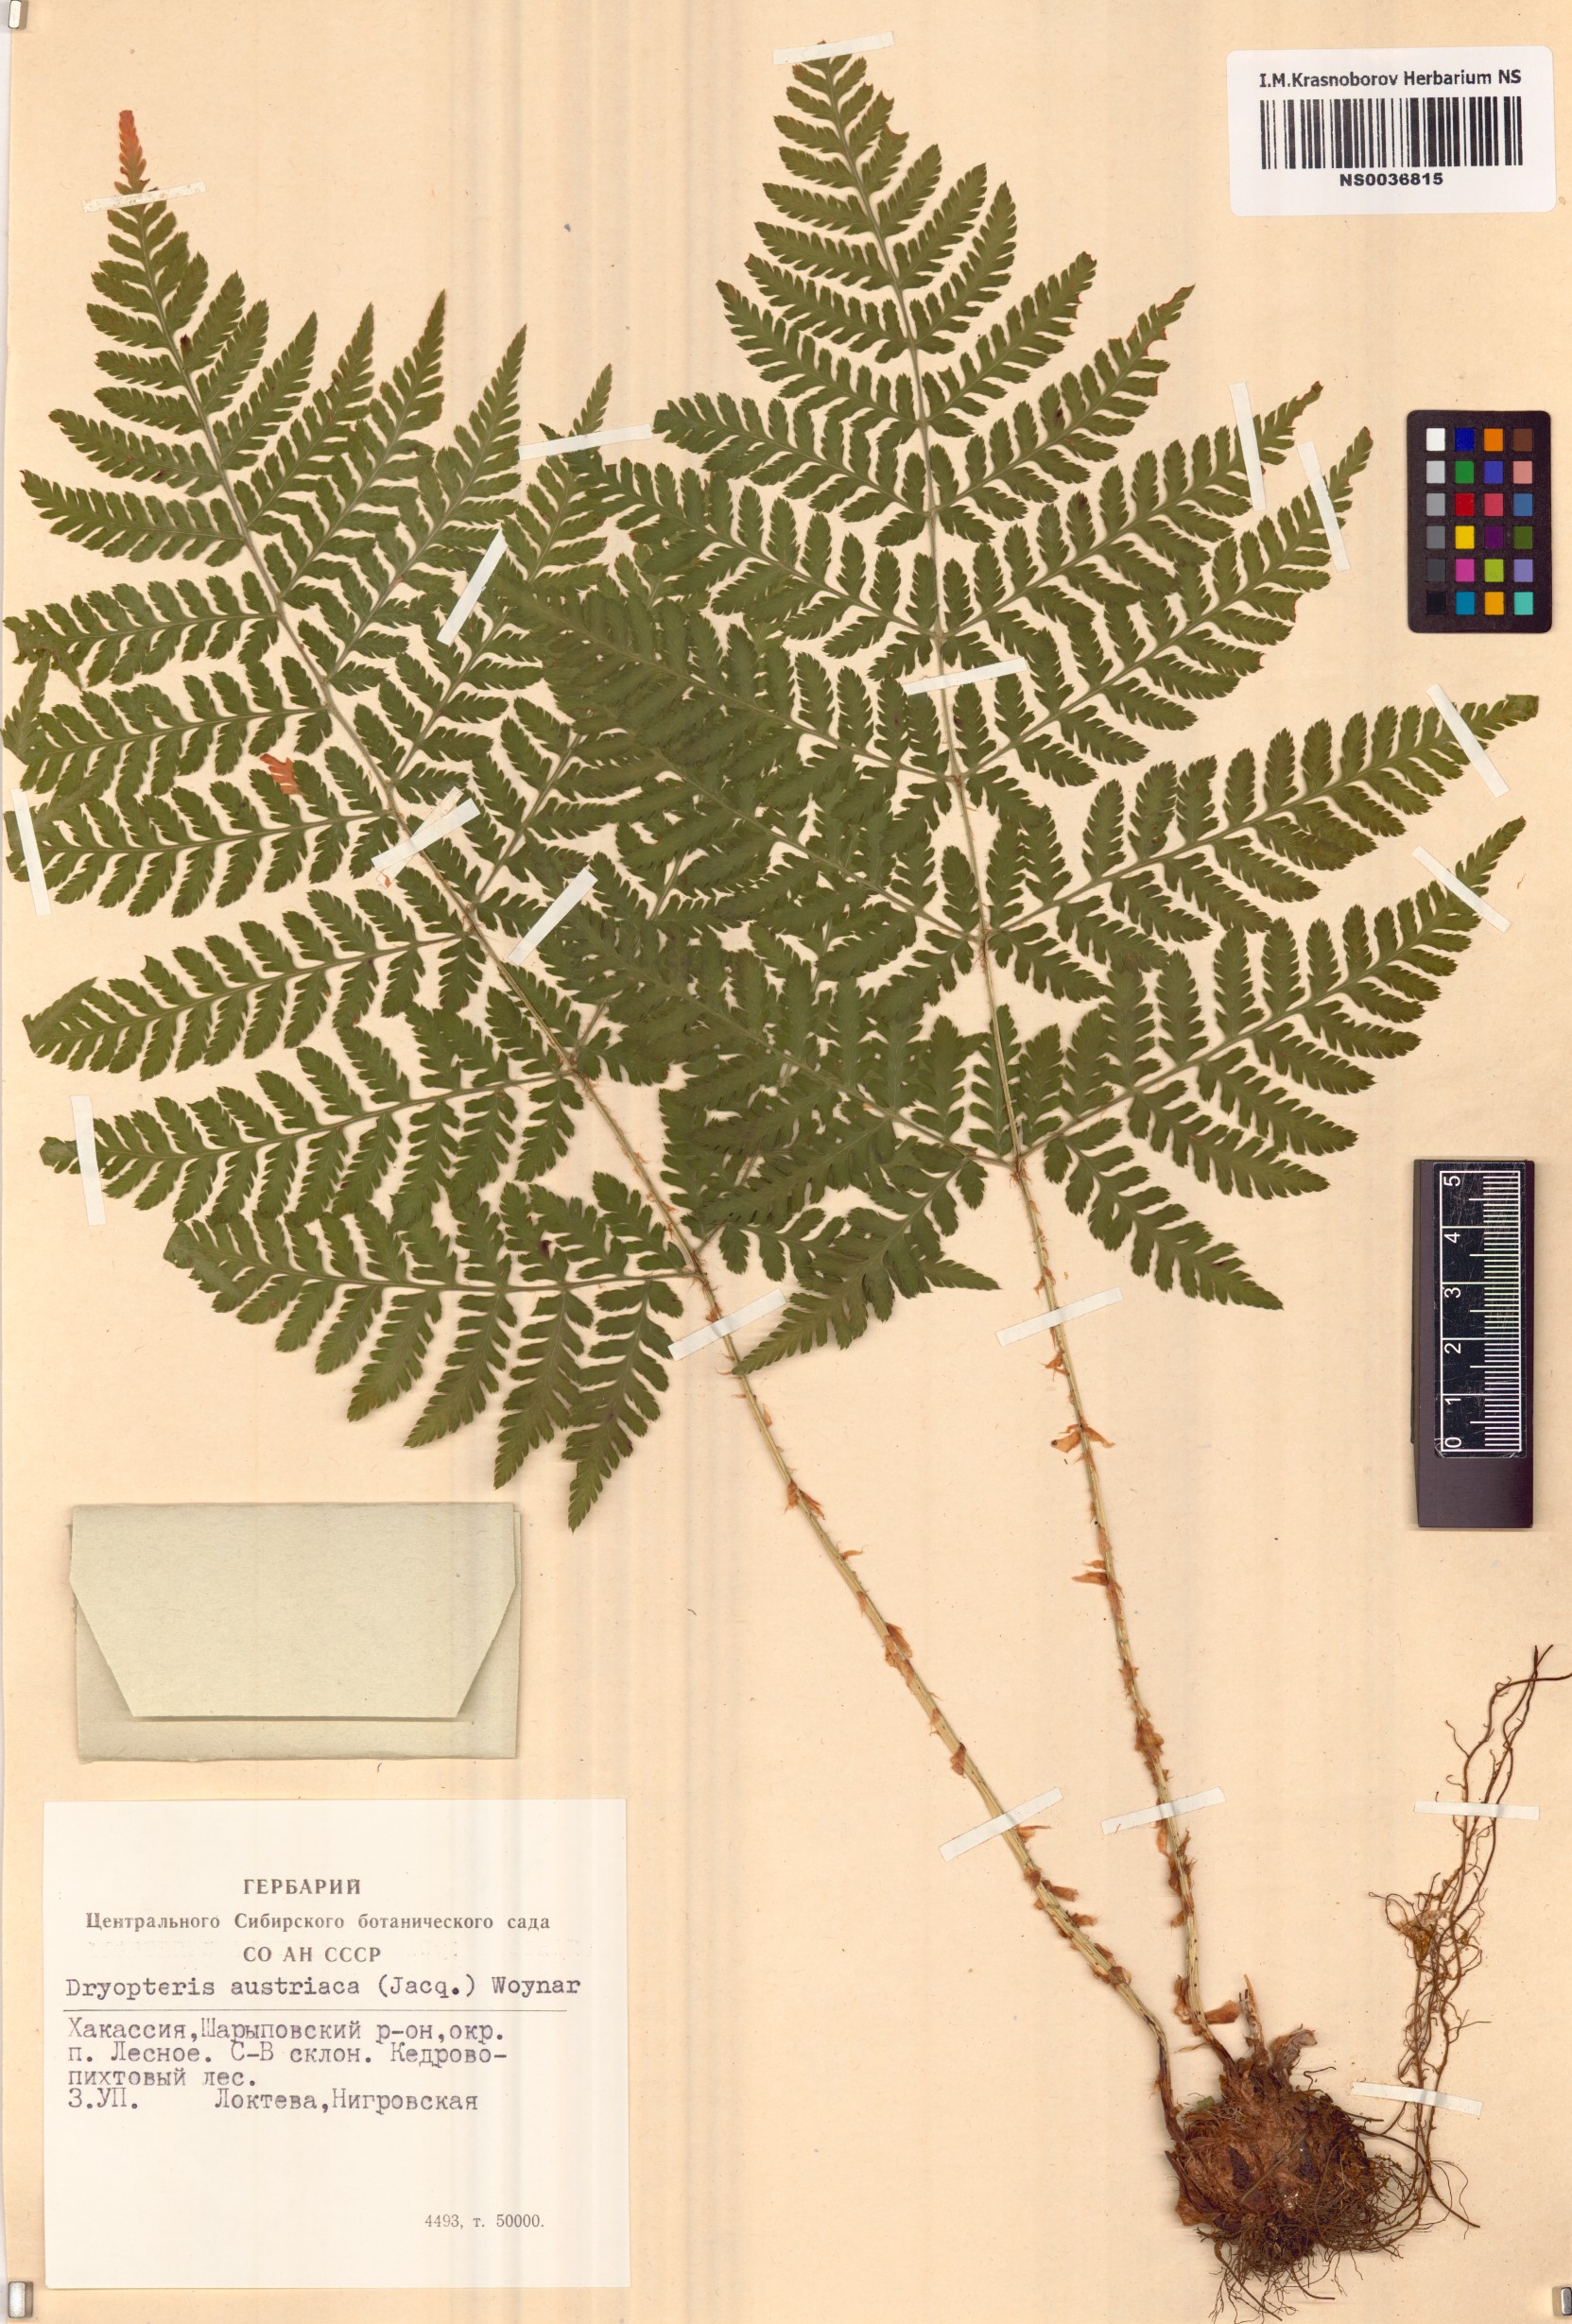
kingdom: Plantae
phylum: Tracheophyta
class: Polypodiopsida
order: Polypodiales
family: Dryopteridaceae
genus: Dryopteris
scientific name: Dryopteris dilatata
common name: Broad buckler-fern
